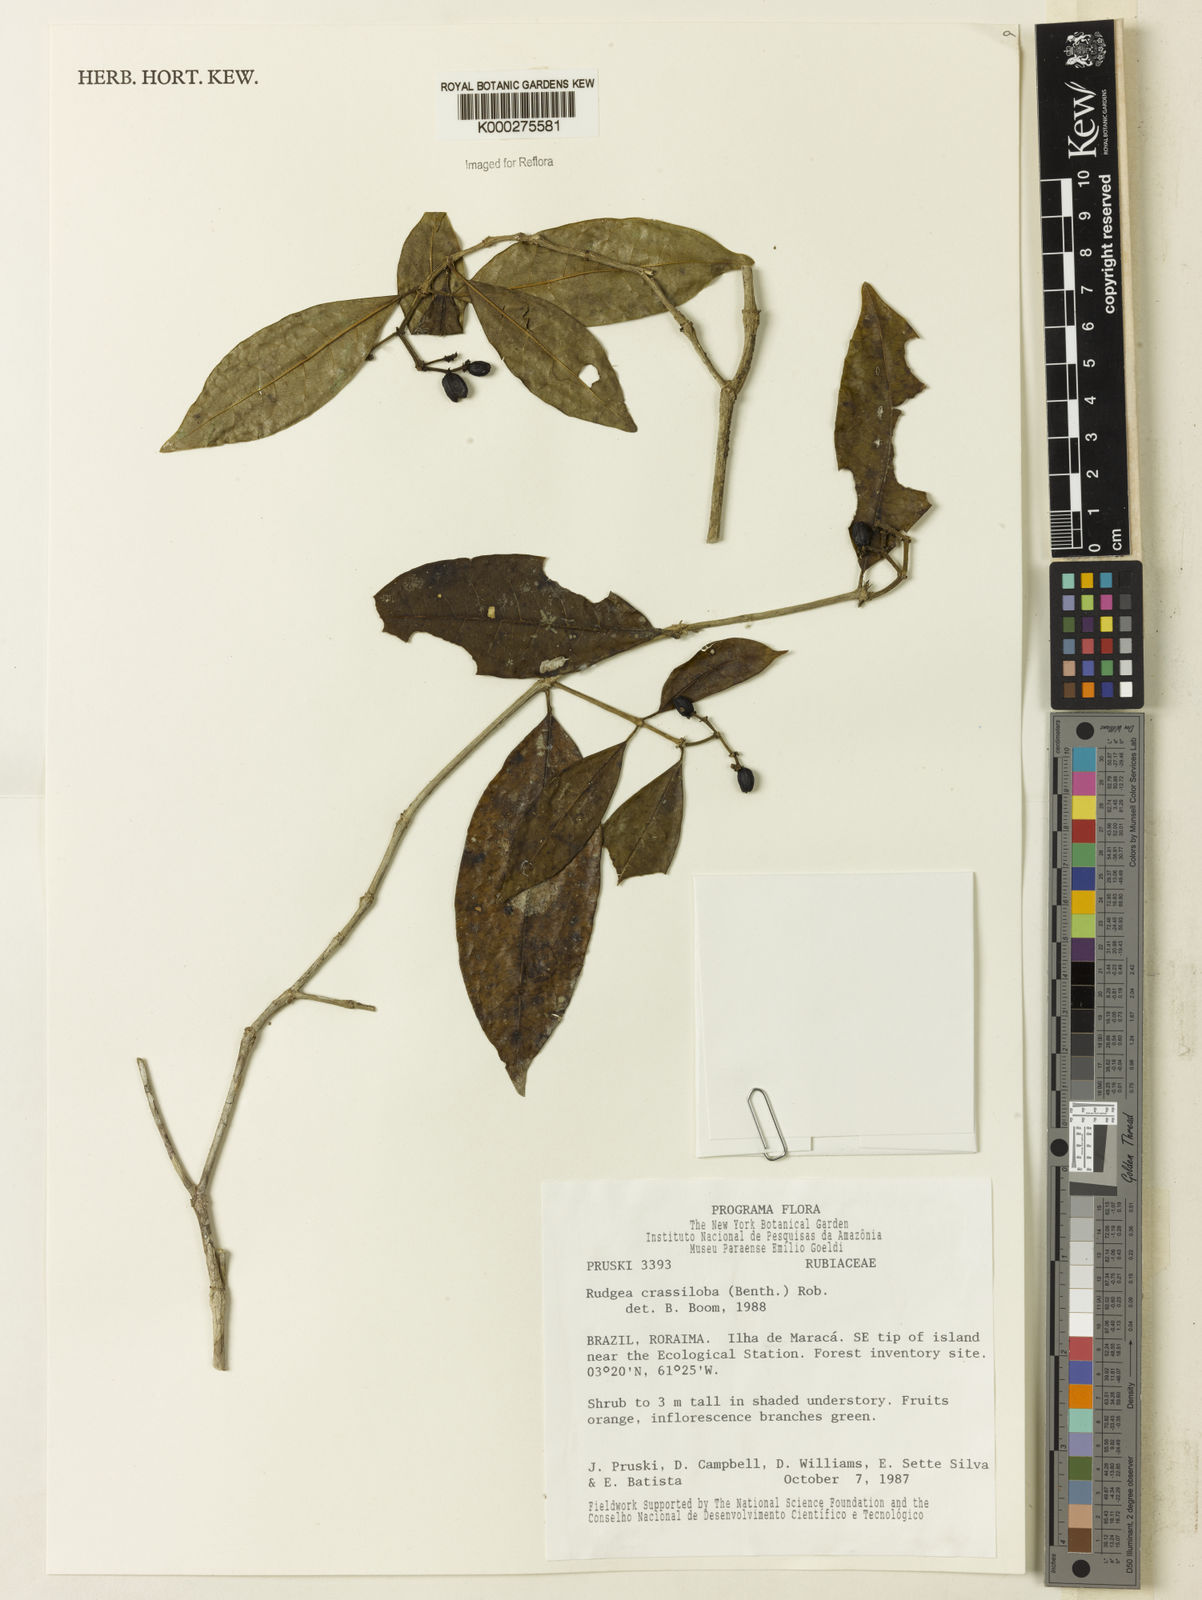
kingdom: Plantae
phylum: Tracheophyta
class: Magnoliopsida
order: Gentianales
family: Rubiaceae
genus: Rudgea
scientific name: Rudgea crassiloba
